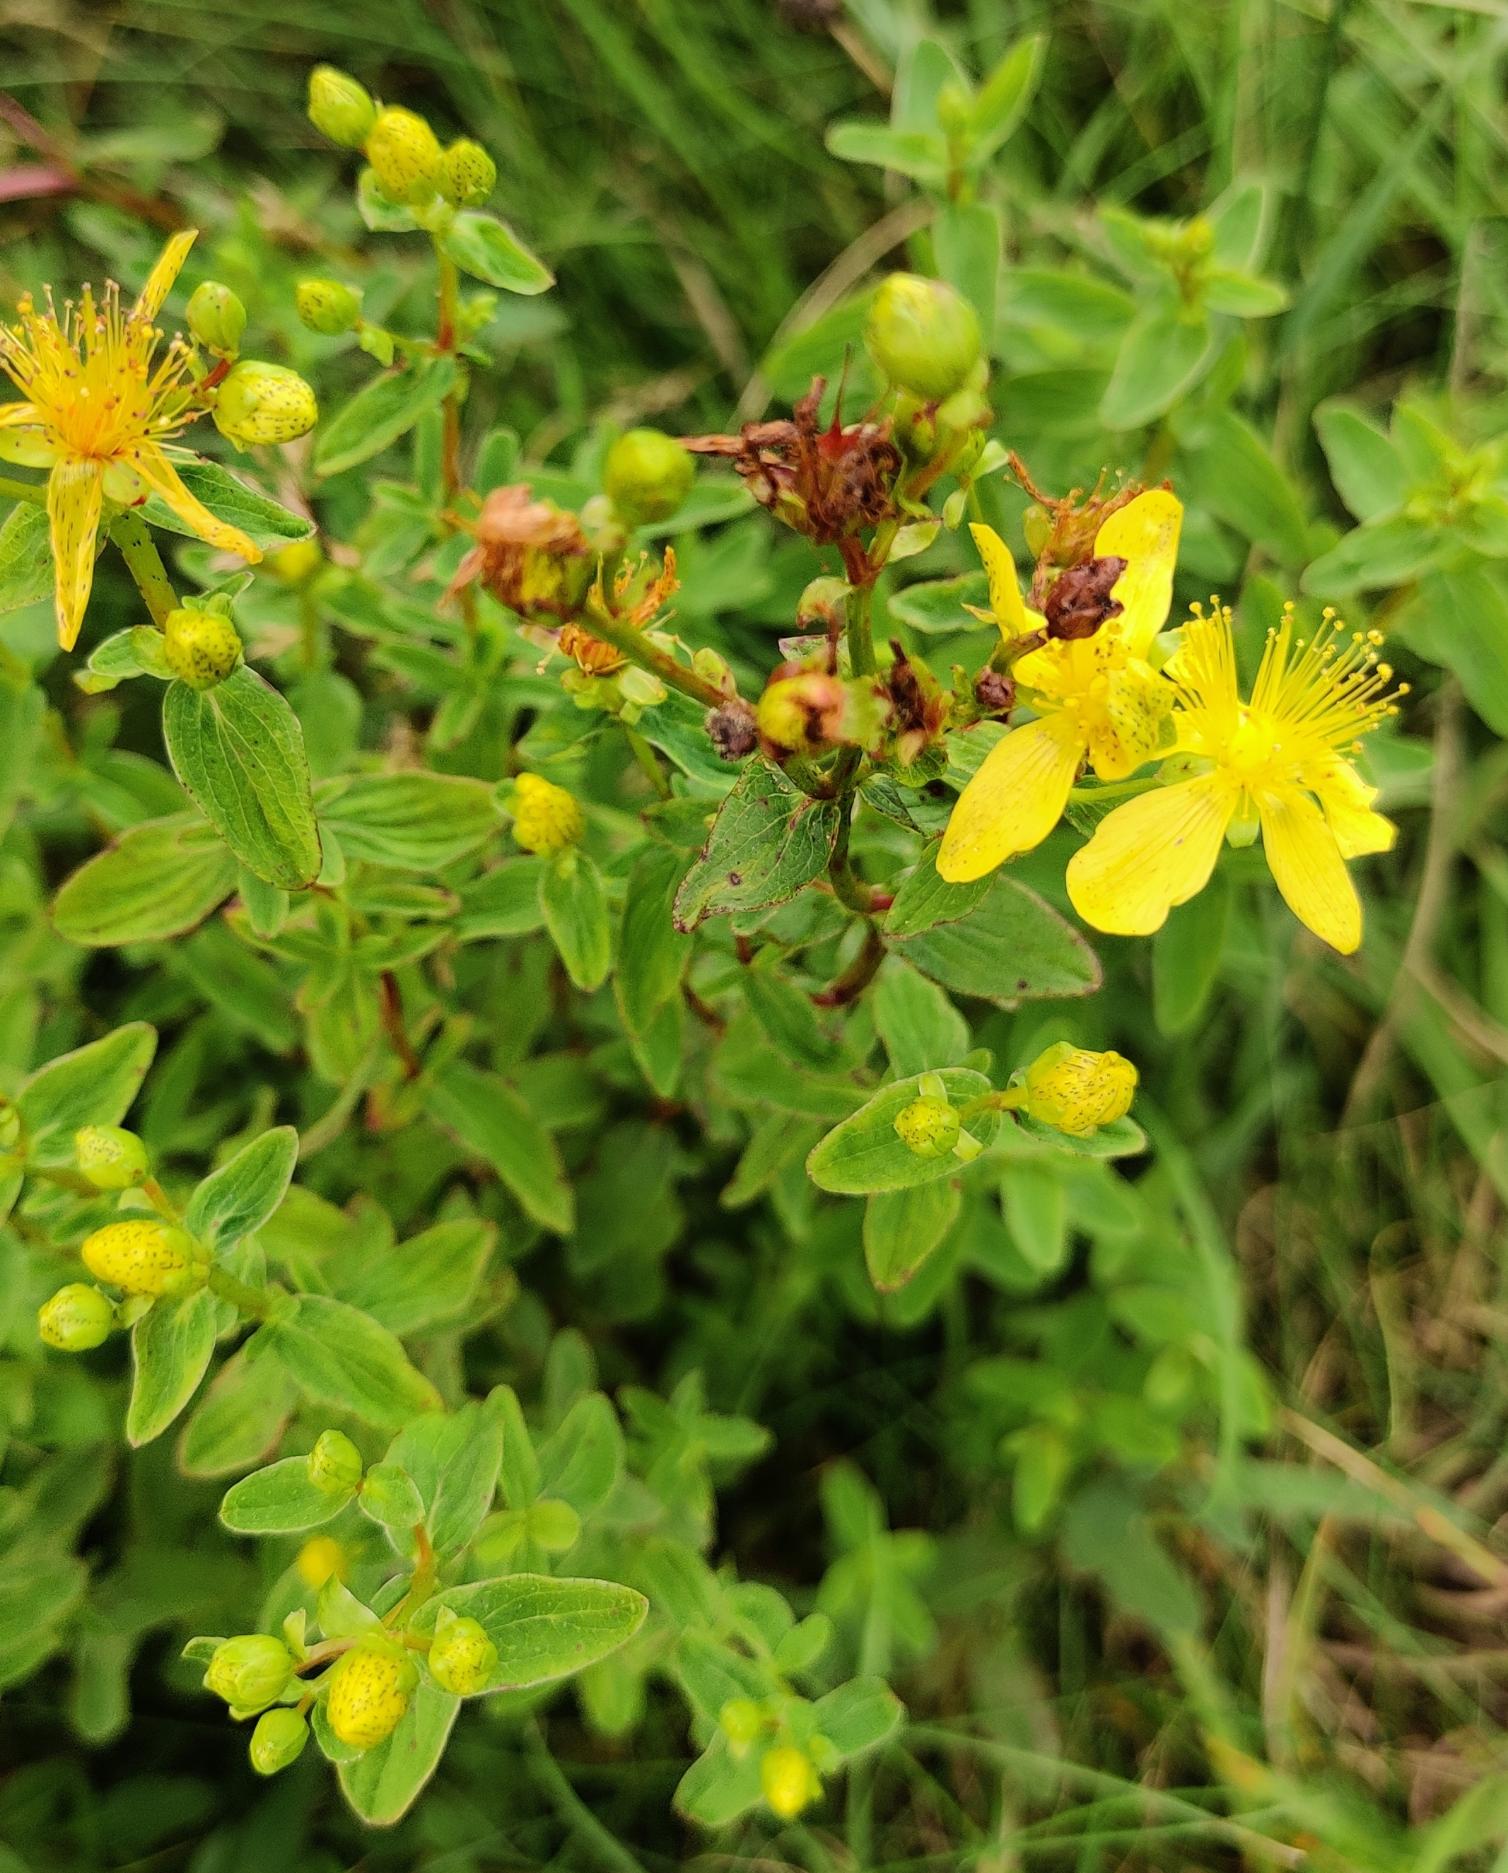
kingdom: Plantae
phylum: Tracheophyta
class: Magnoliopsida
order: Malpighiales
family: Hypericaceae
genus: Hypericum
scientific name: Hypericum maculatum
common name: Kantet perikon
